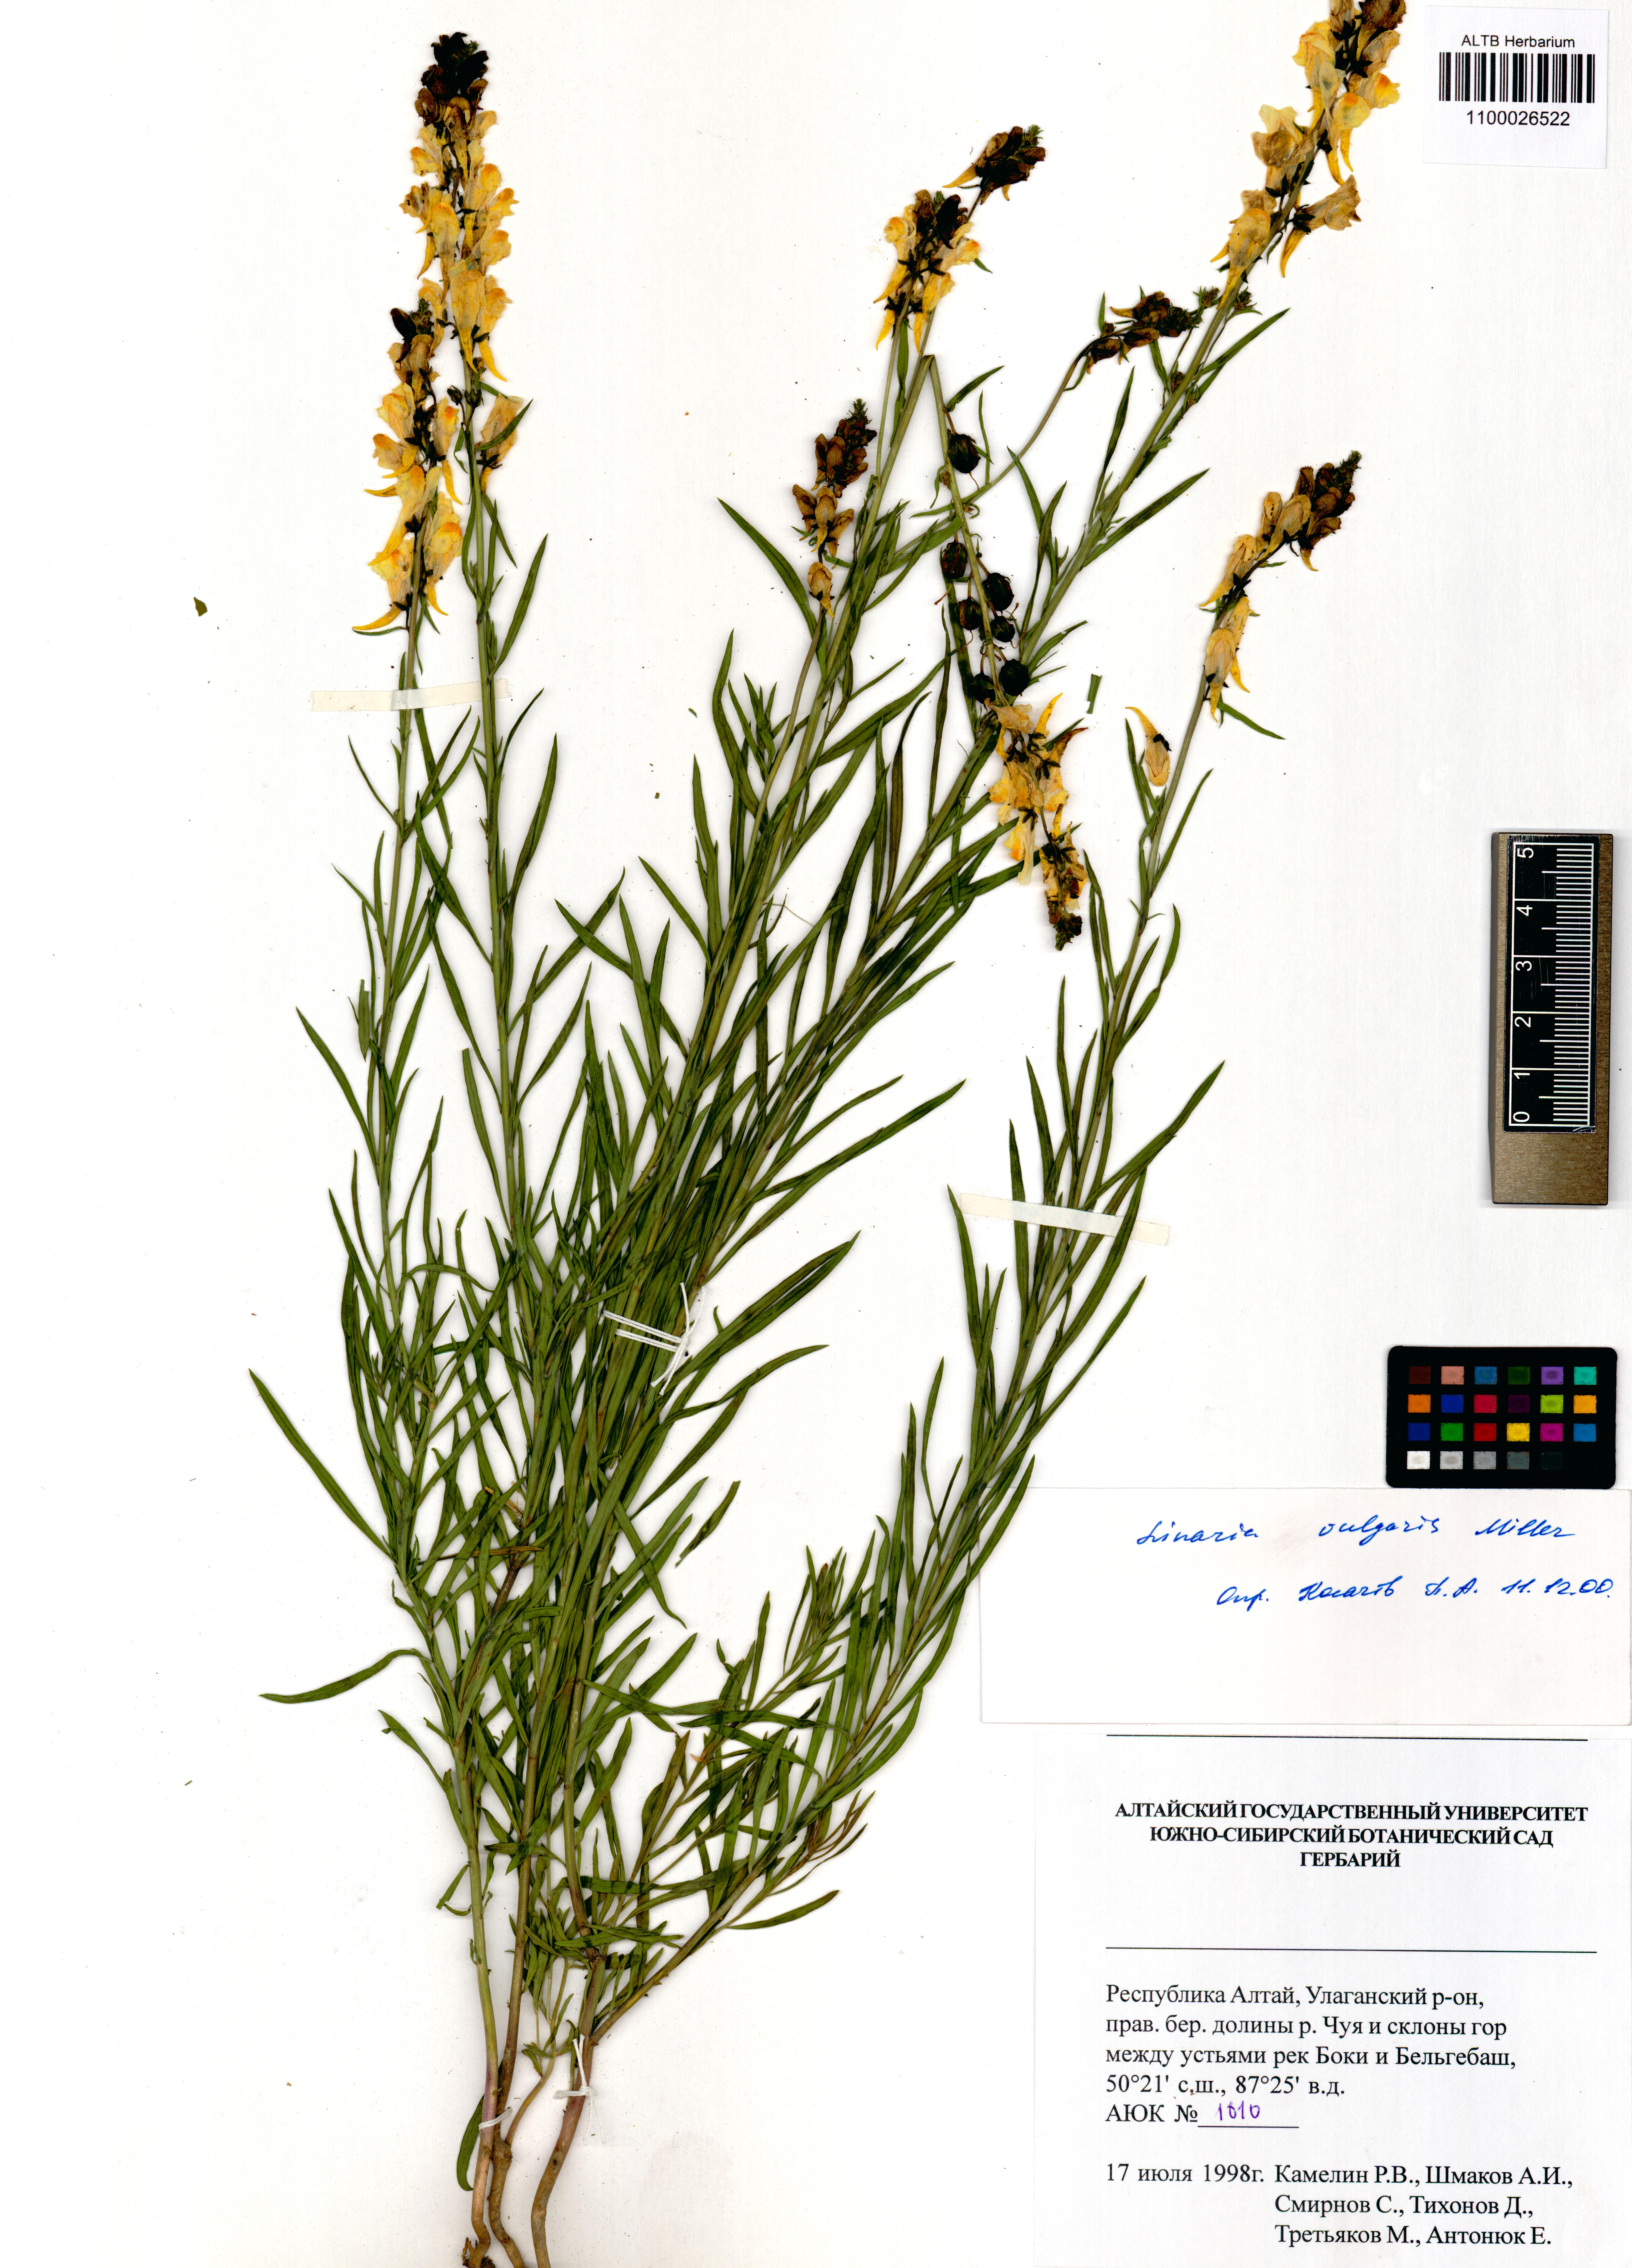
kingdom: Plantae
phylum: Tracheophyta
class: Magnoliopsida
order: Lamiales
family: Plantaginaceae
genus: Linaria
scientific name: Linaria vulgaris
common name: Butter and eggs
